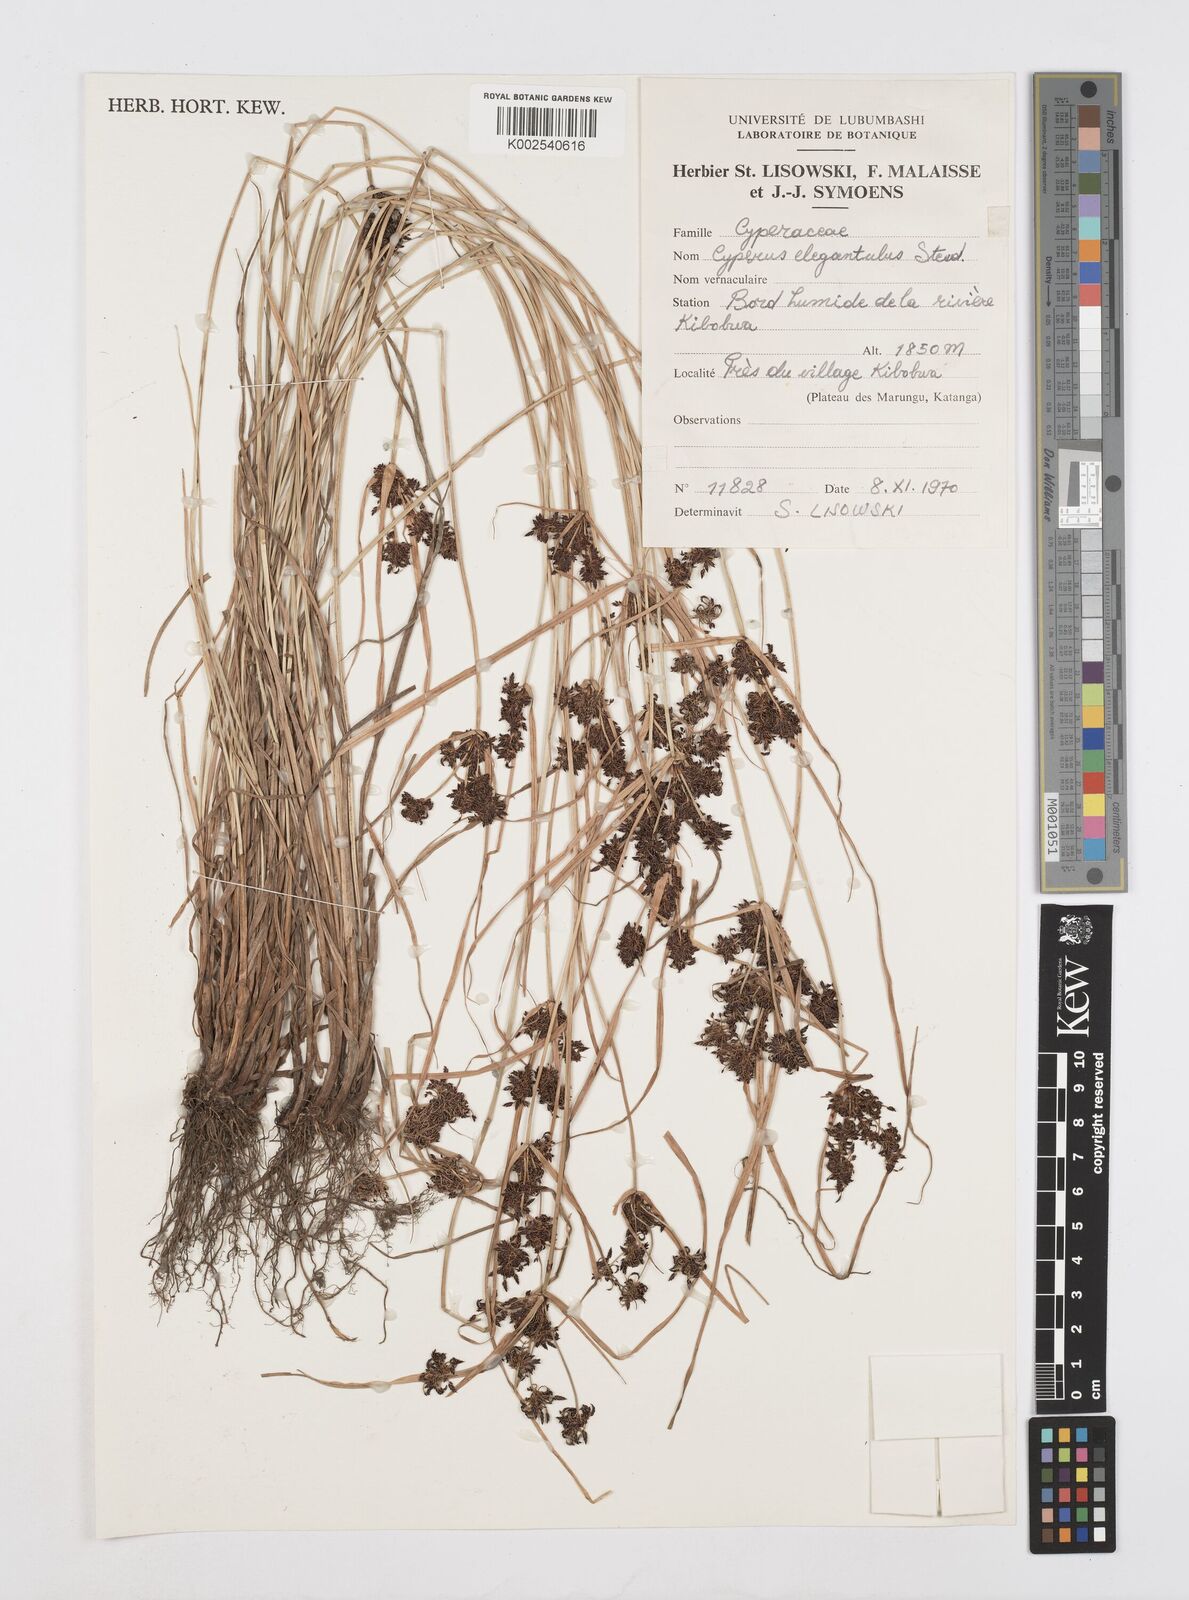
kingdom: Plantae
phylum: Tracheophyta
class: Liliopsida
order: Poales
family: Cyperaceae
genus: Cyperus
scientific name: Cyperus elegantulus
